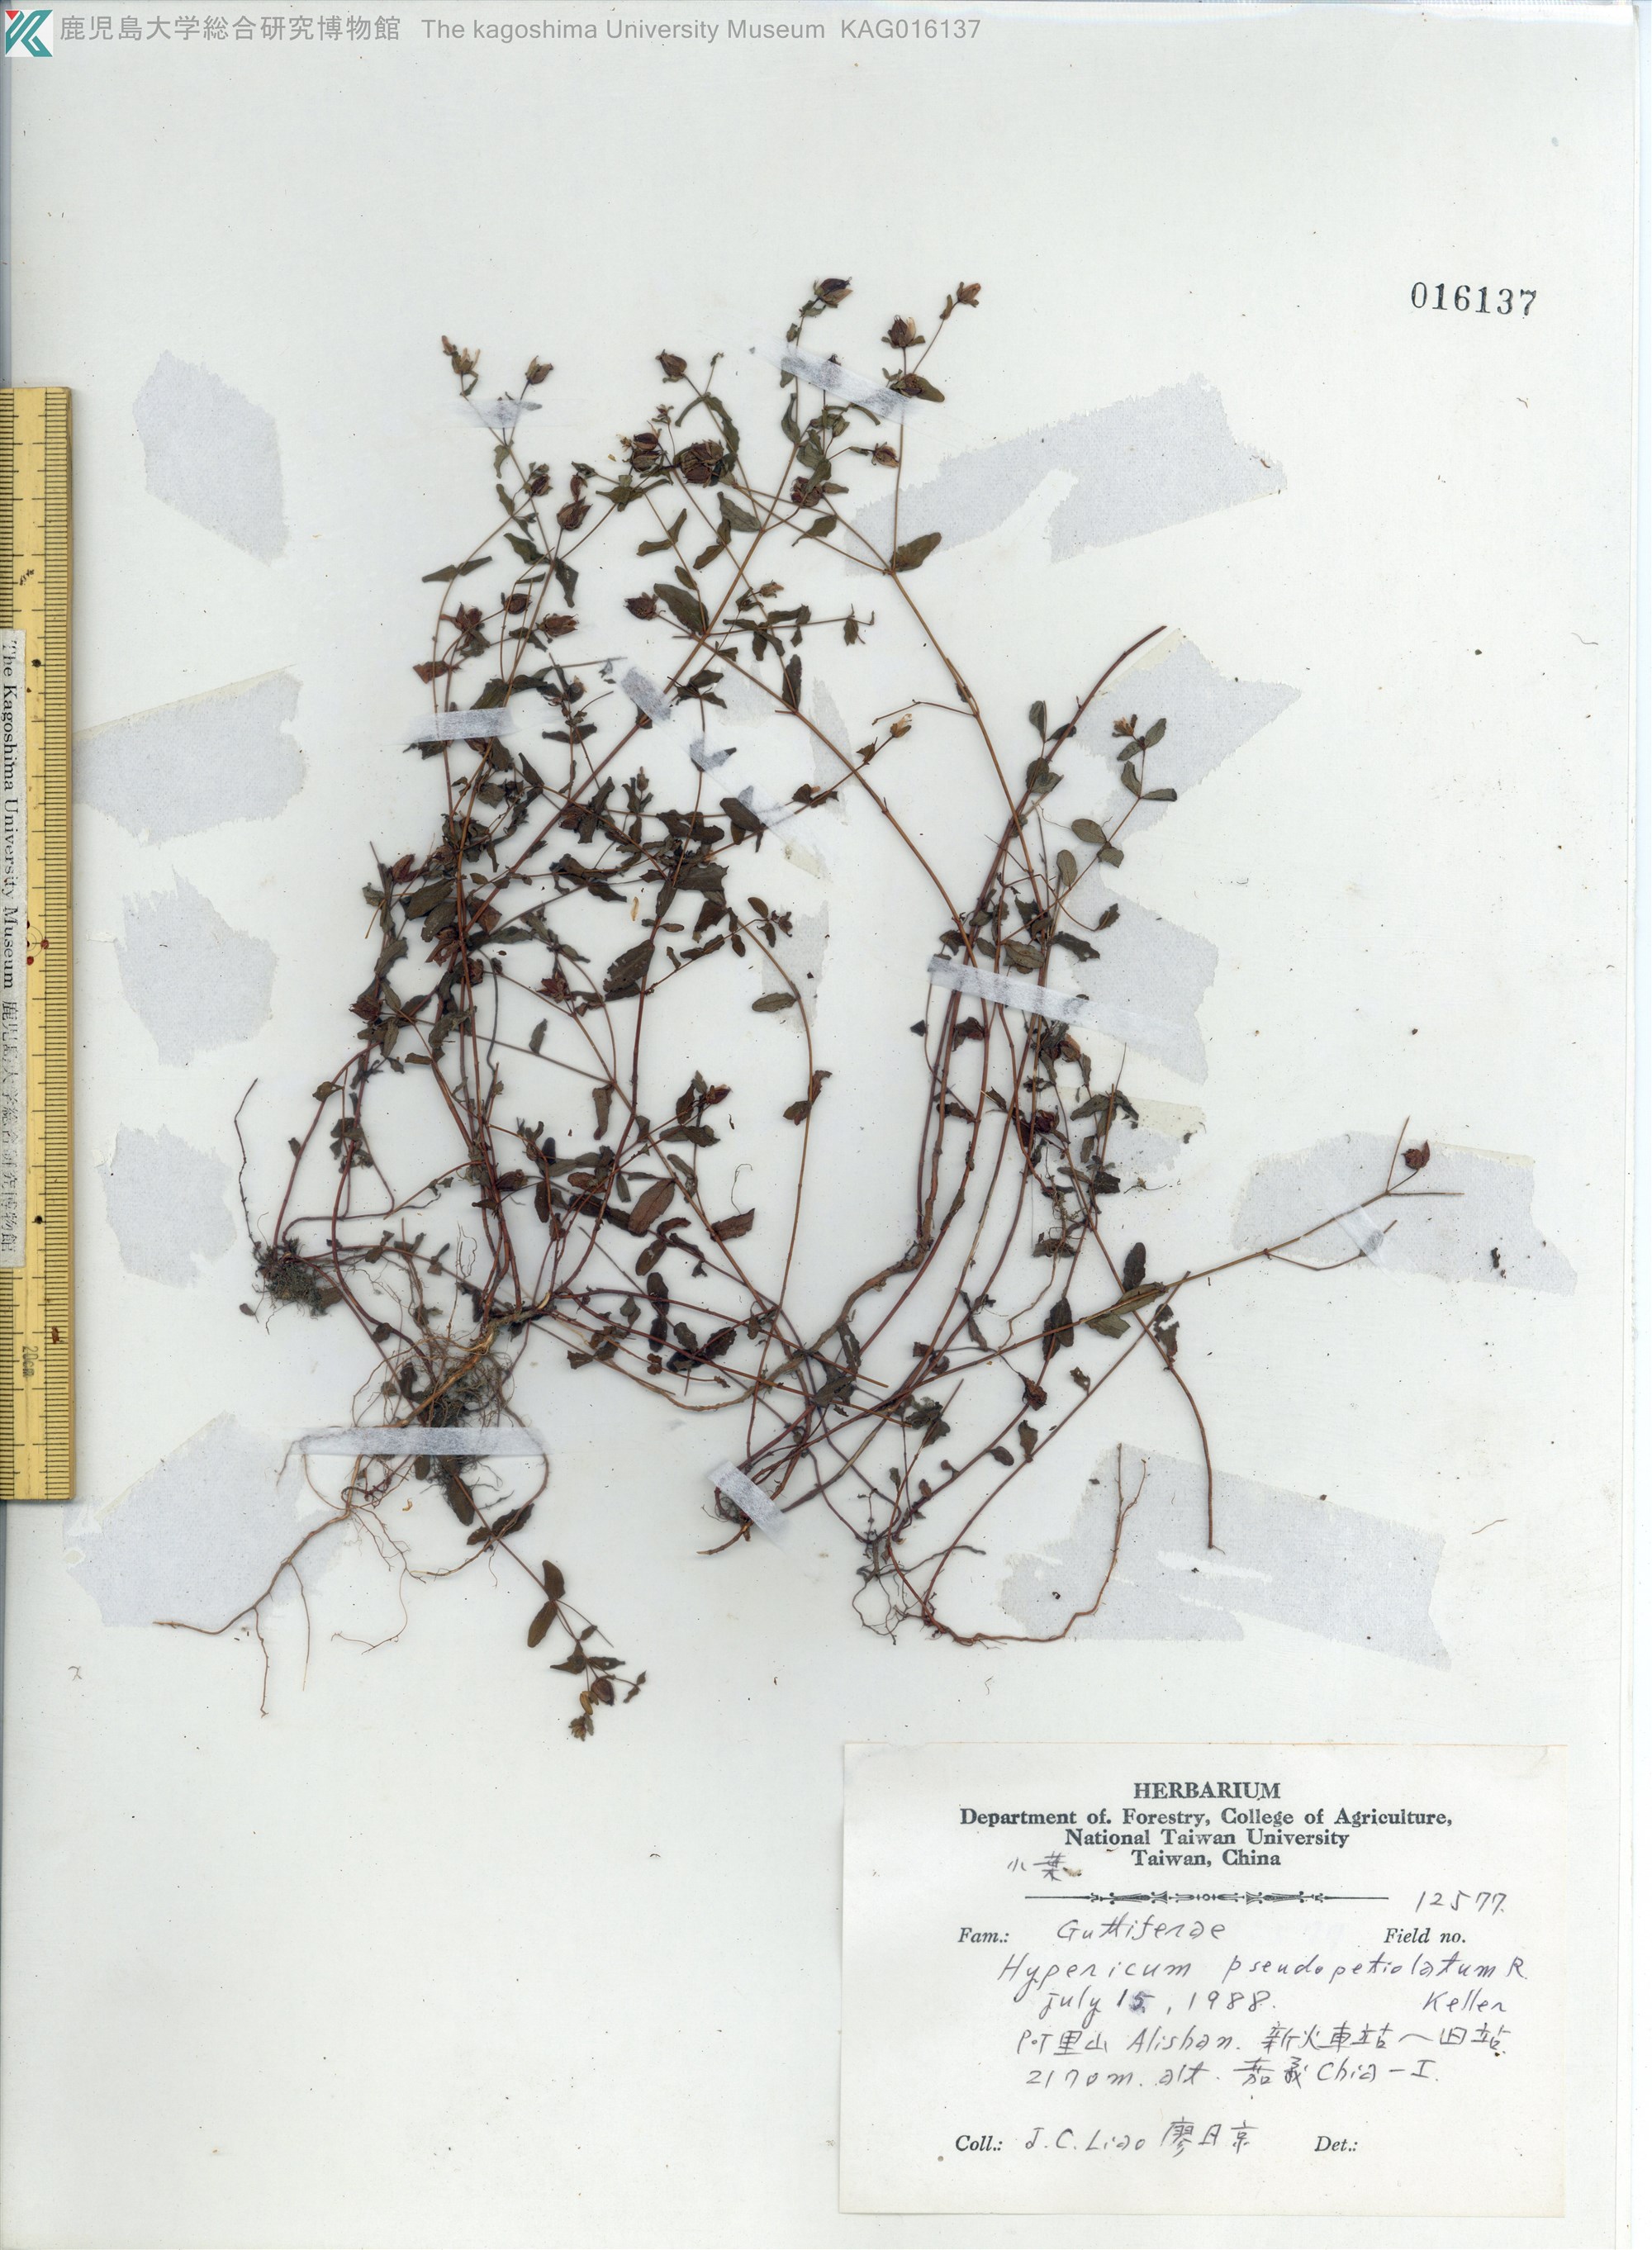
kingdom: Plantae
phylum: Tracheophyta
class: Magnoliopsida
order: Malpighiales
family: Hypericaceae
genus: Hypericum
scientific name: Hypericum pseudopetiolatum
